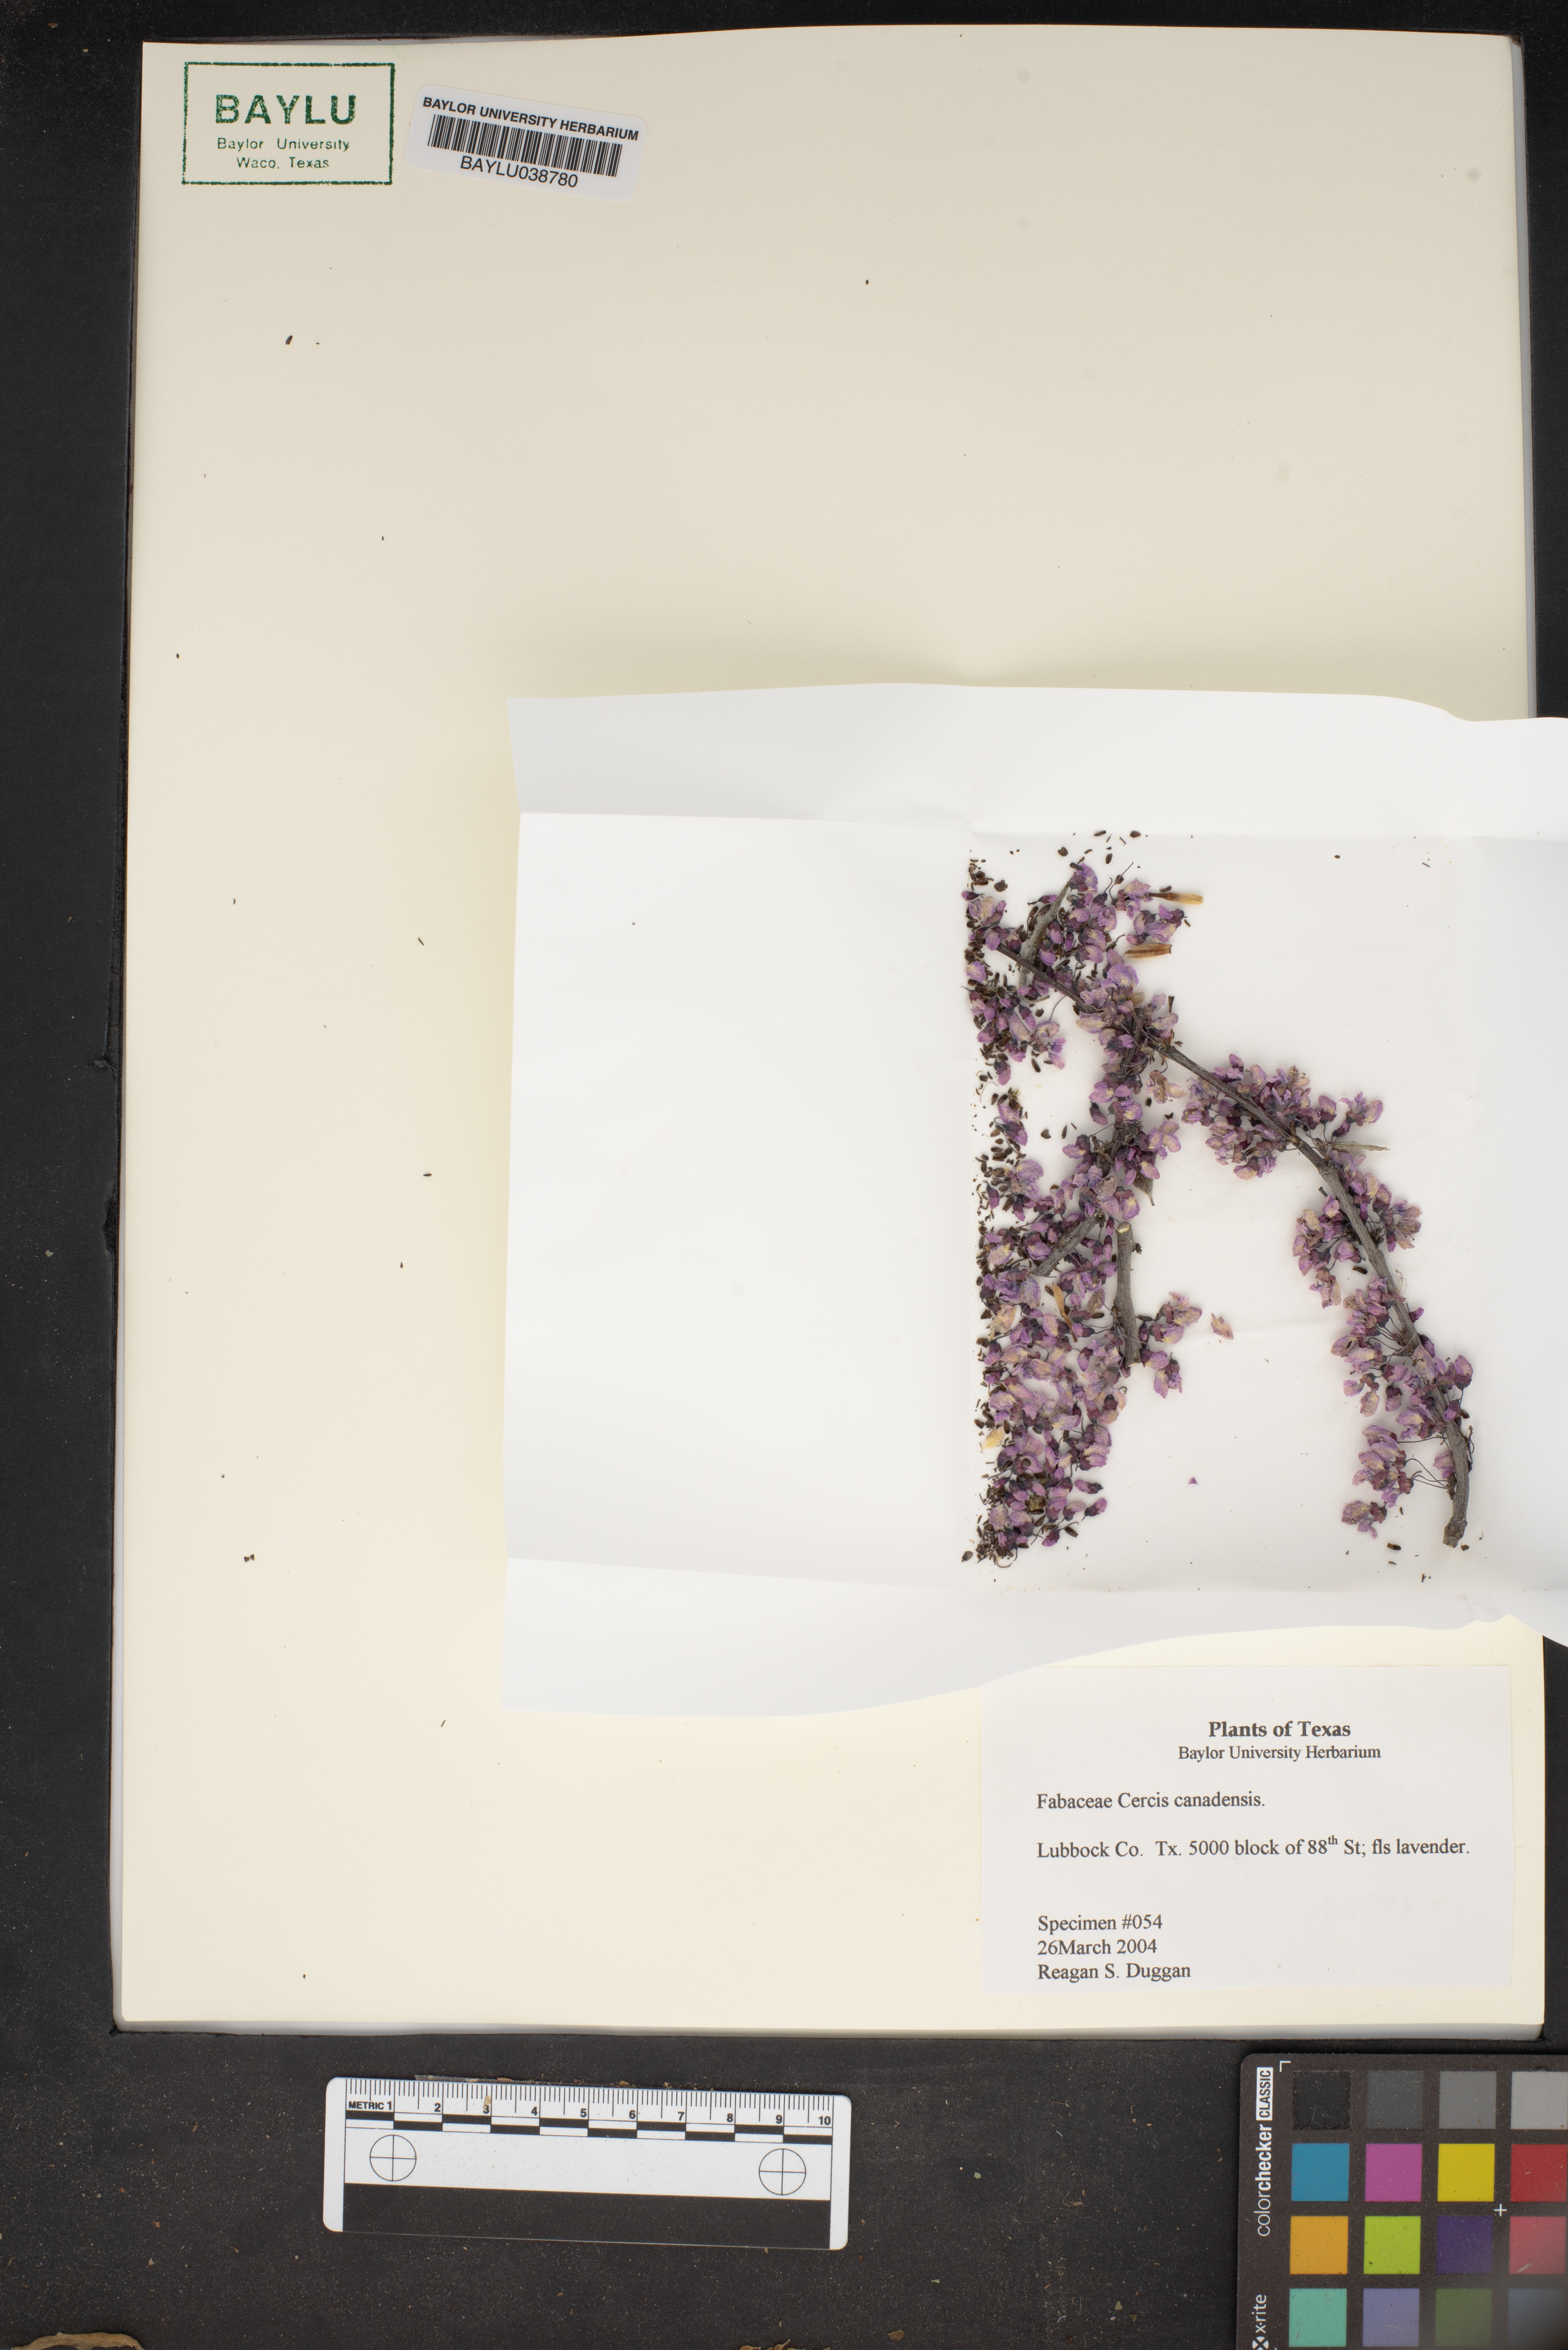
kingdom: Plantae
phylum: Tracheophyta
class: Magnoliopsida
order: Fabales
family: Fabaceae
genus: Cercis
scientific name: Cercis canadensis
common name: Eastern redbud
